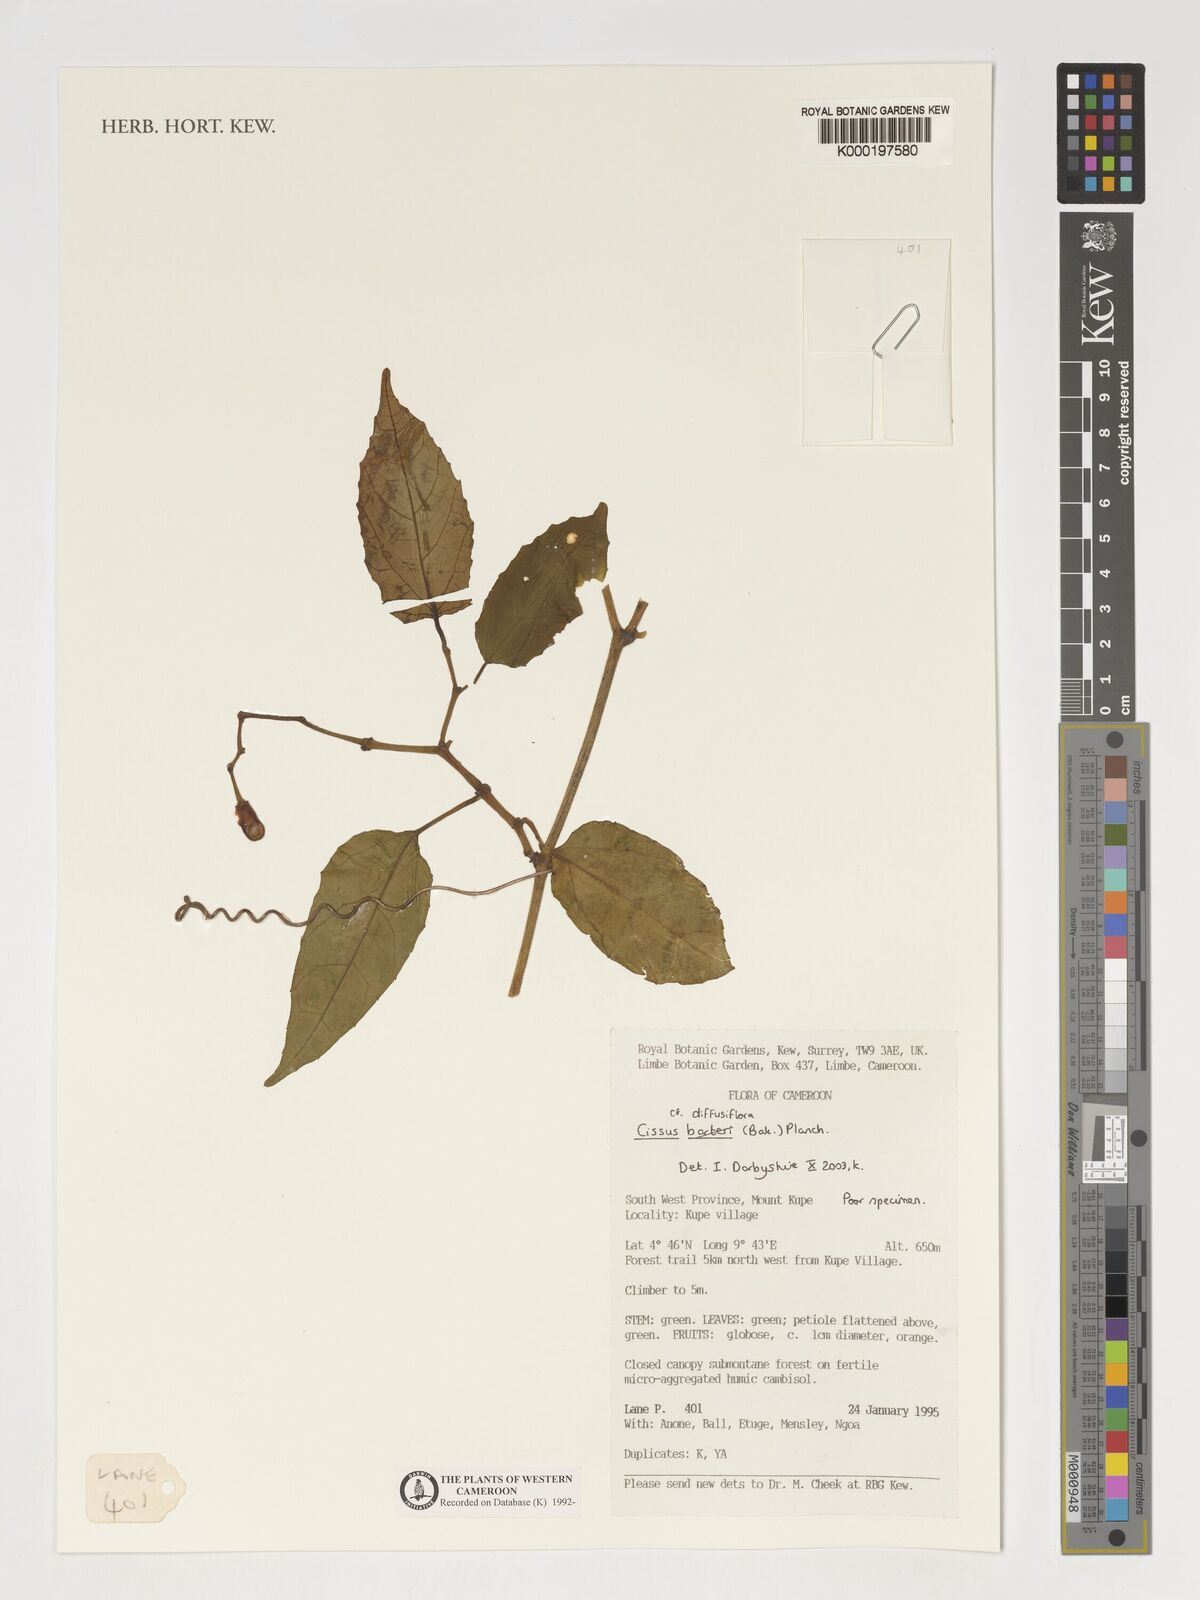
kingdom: Plantae
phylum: Tracheophyta
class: Magnoliopsida
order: Vitales
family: Vitaceae
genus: Cissus
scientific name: Cissus diffusiflora
